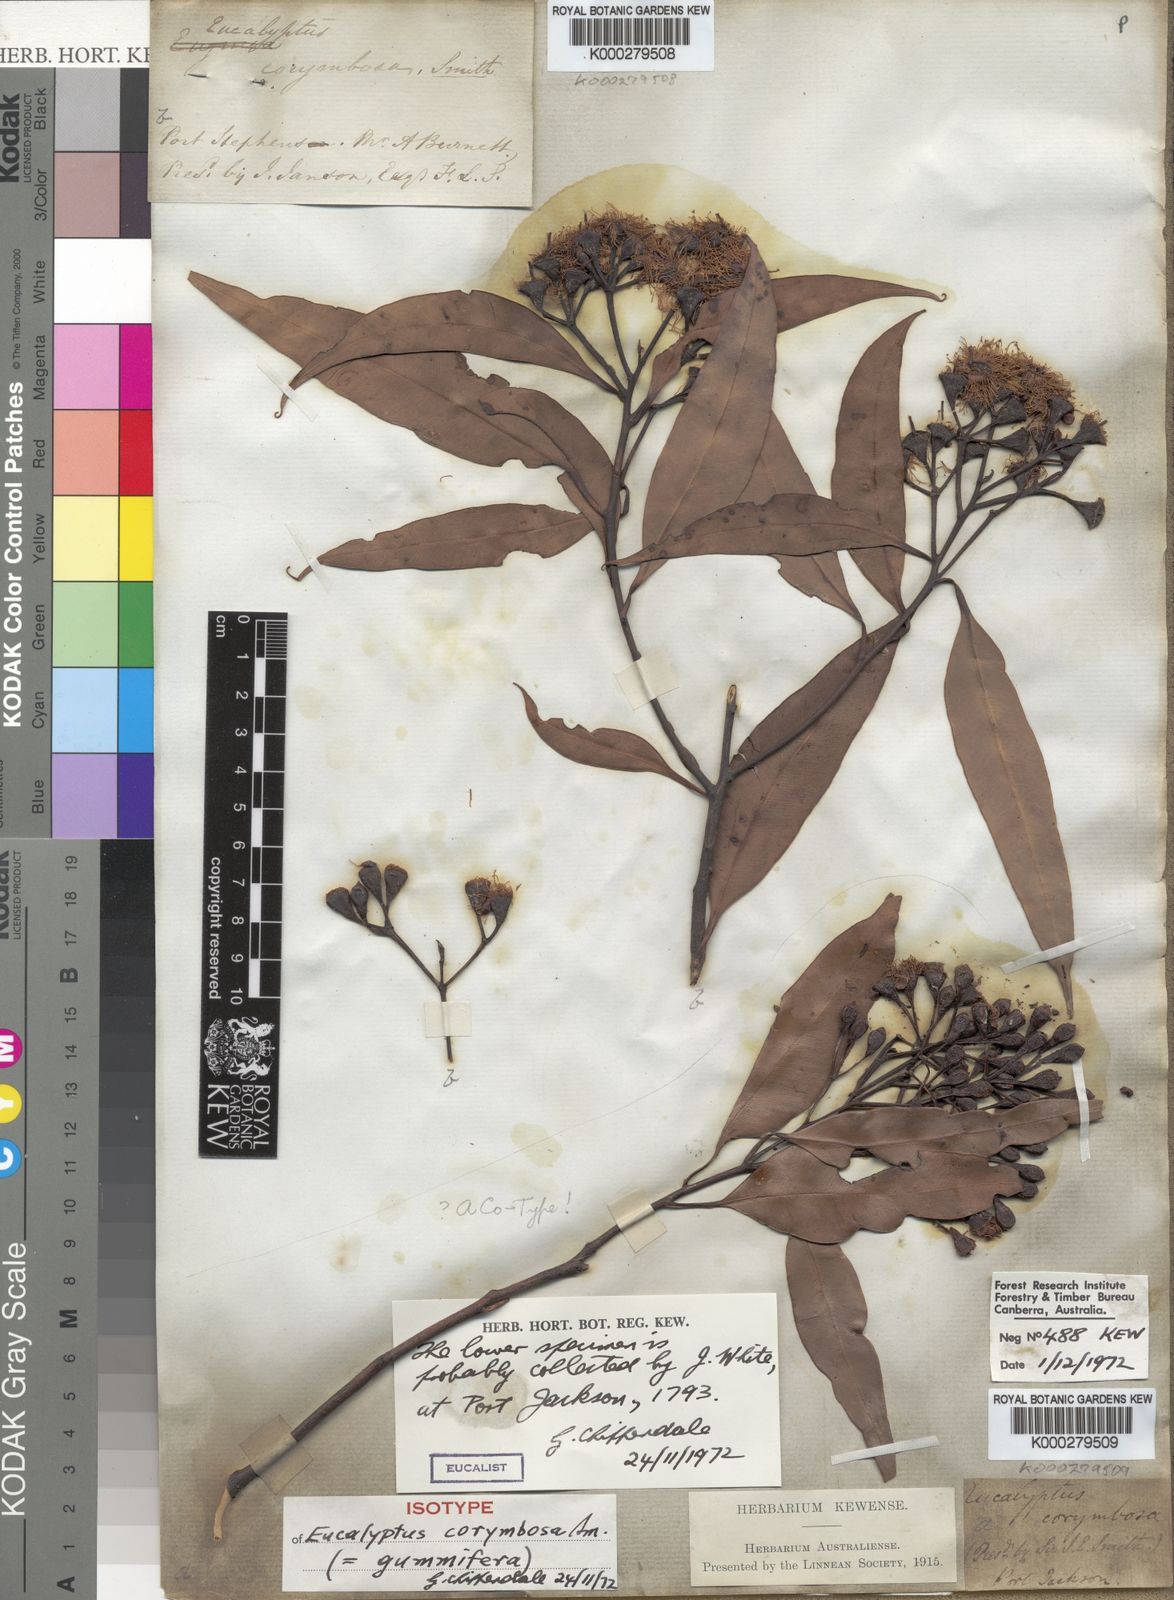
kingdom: Plantae
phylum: Tracheophyta
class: Magnoliopsida
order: Myrtales
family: Myrtaceae
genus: Corymbia
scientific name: Corymbia gummifera
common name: Red bloodwood
